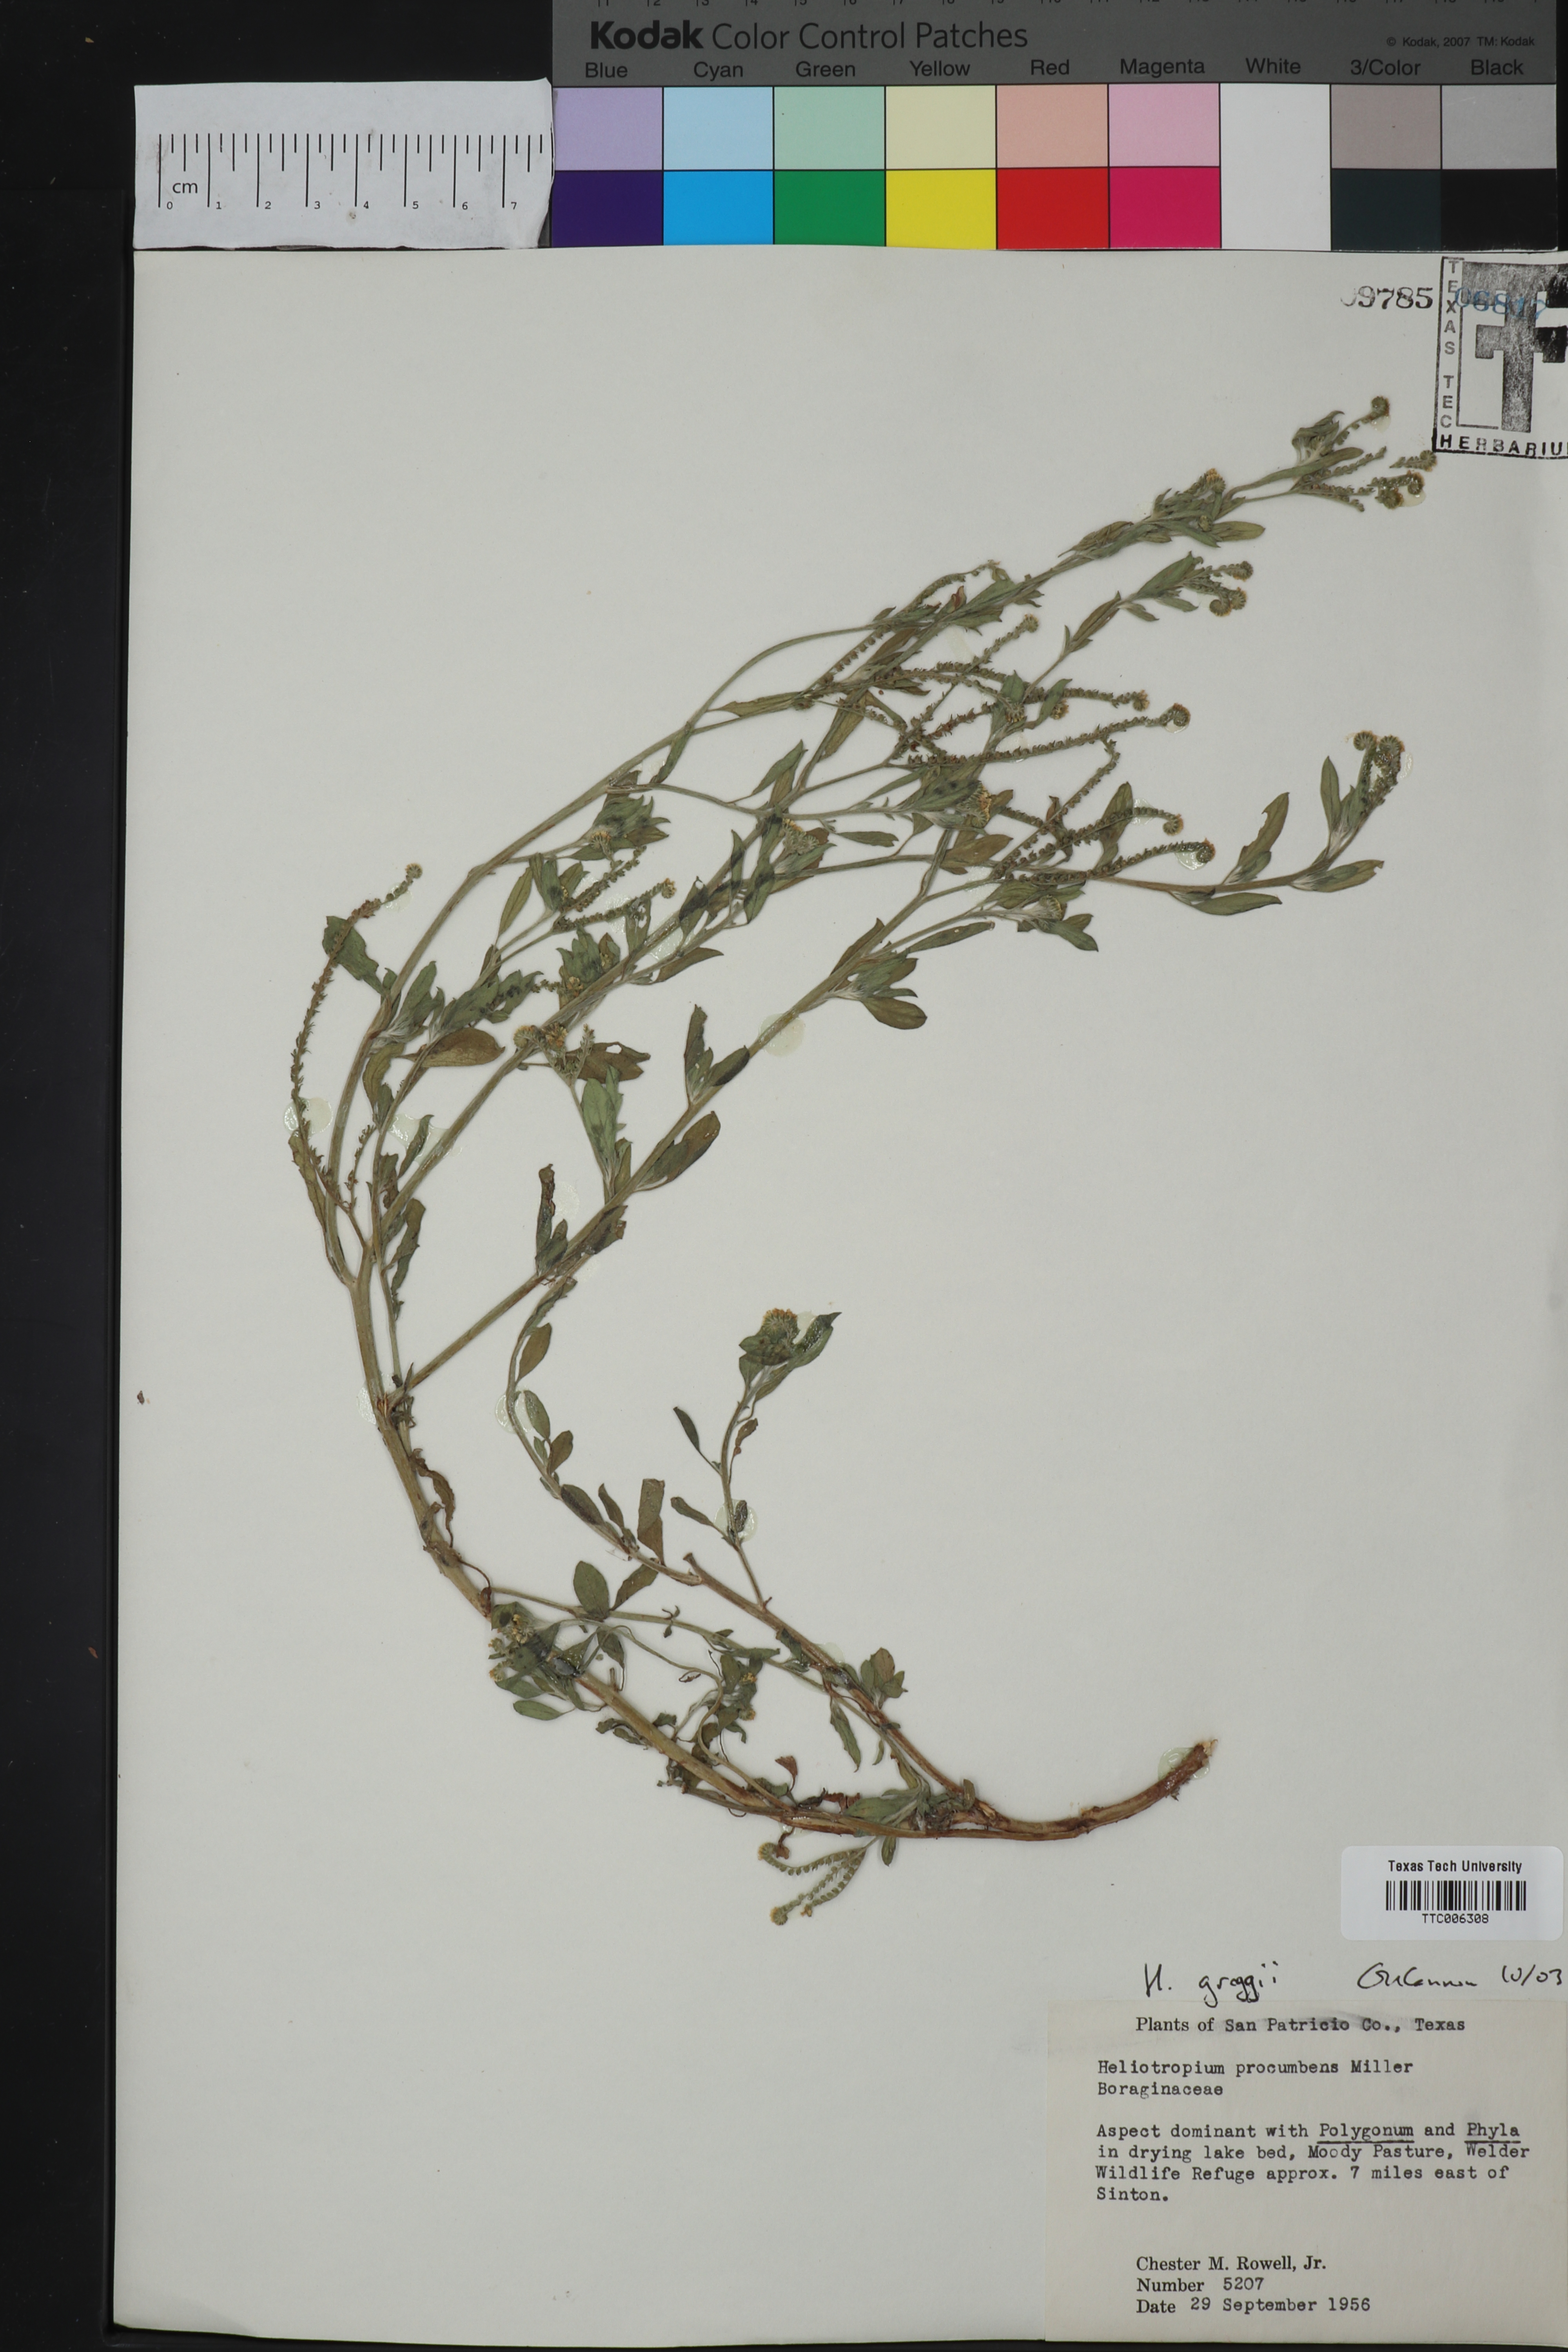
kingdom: Plantae
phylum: Tracheophyta
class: Magnoliopsida
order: Boraginales
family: Heliotropiaceae
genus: Euploca
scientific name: Euploca greggii
